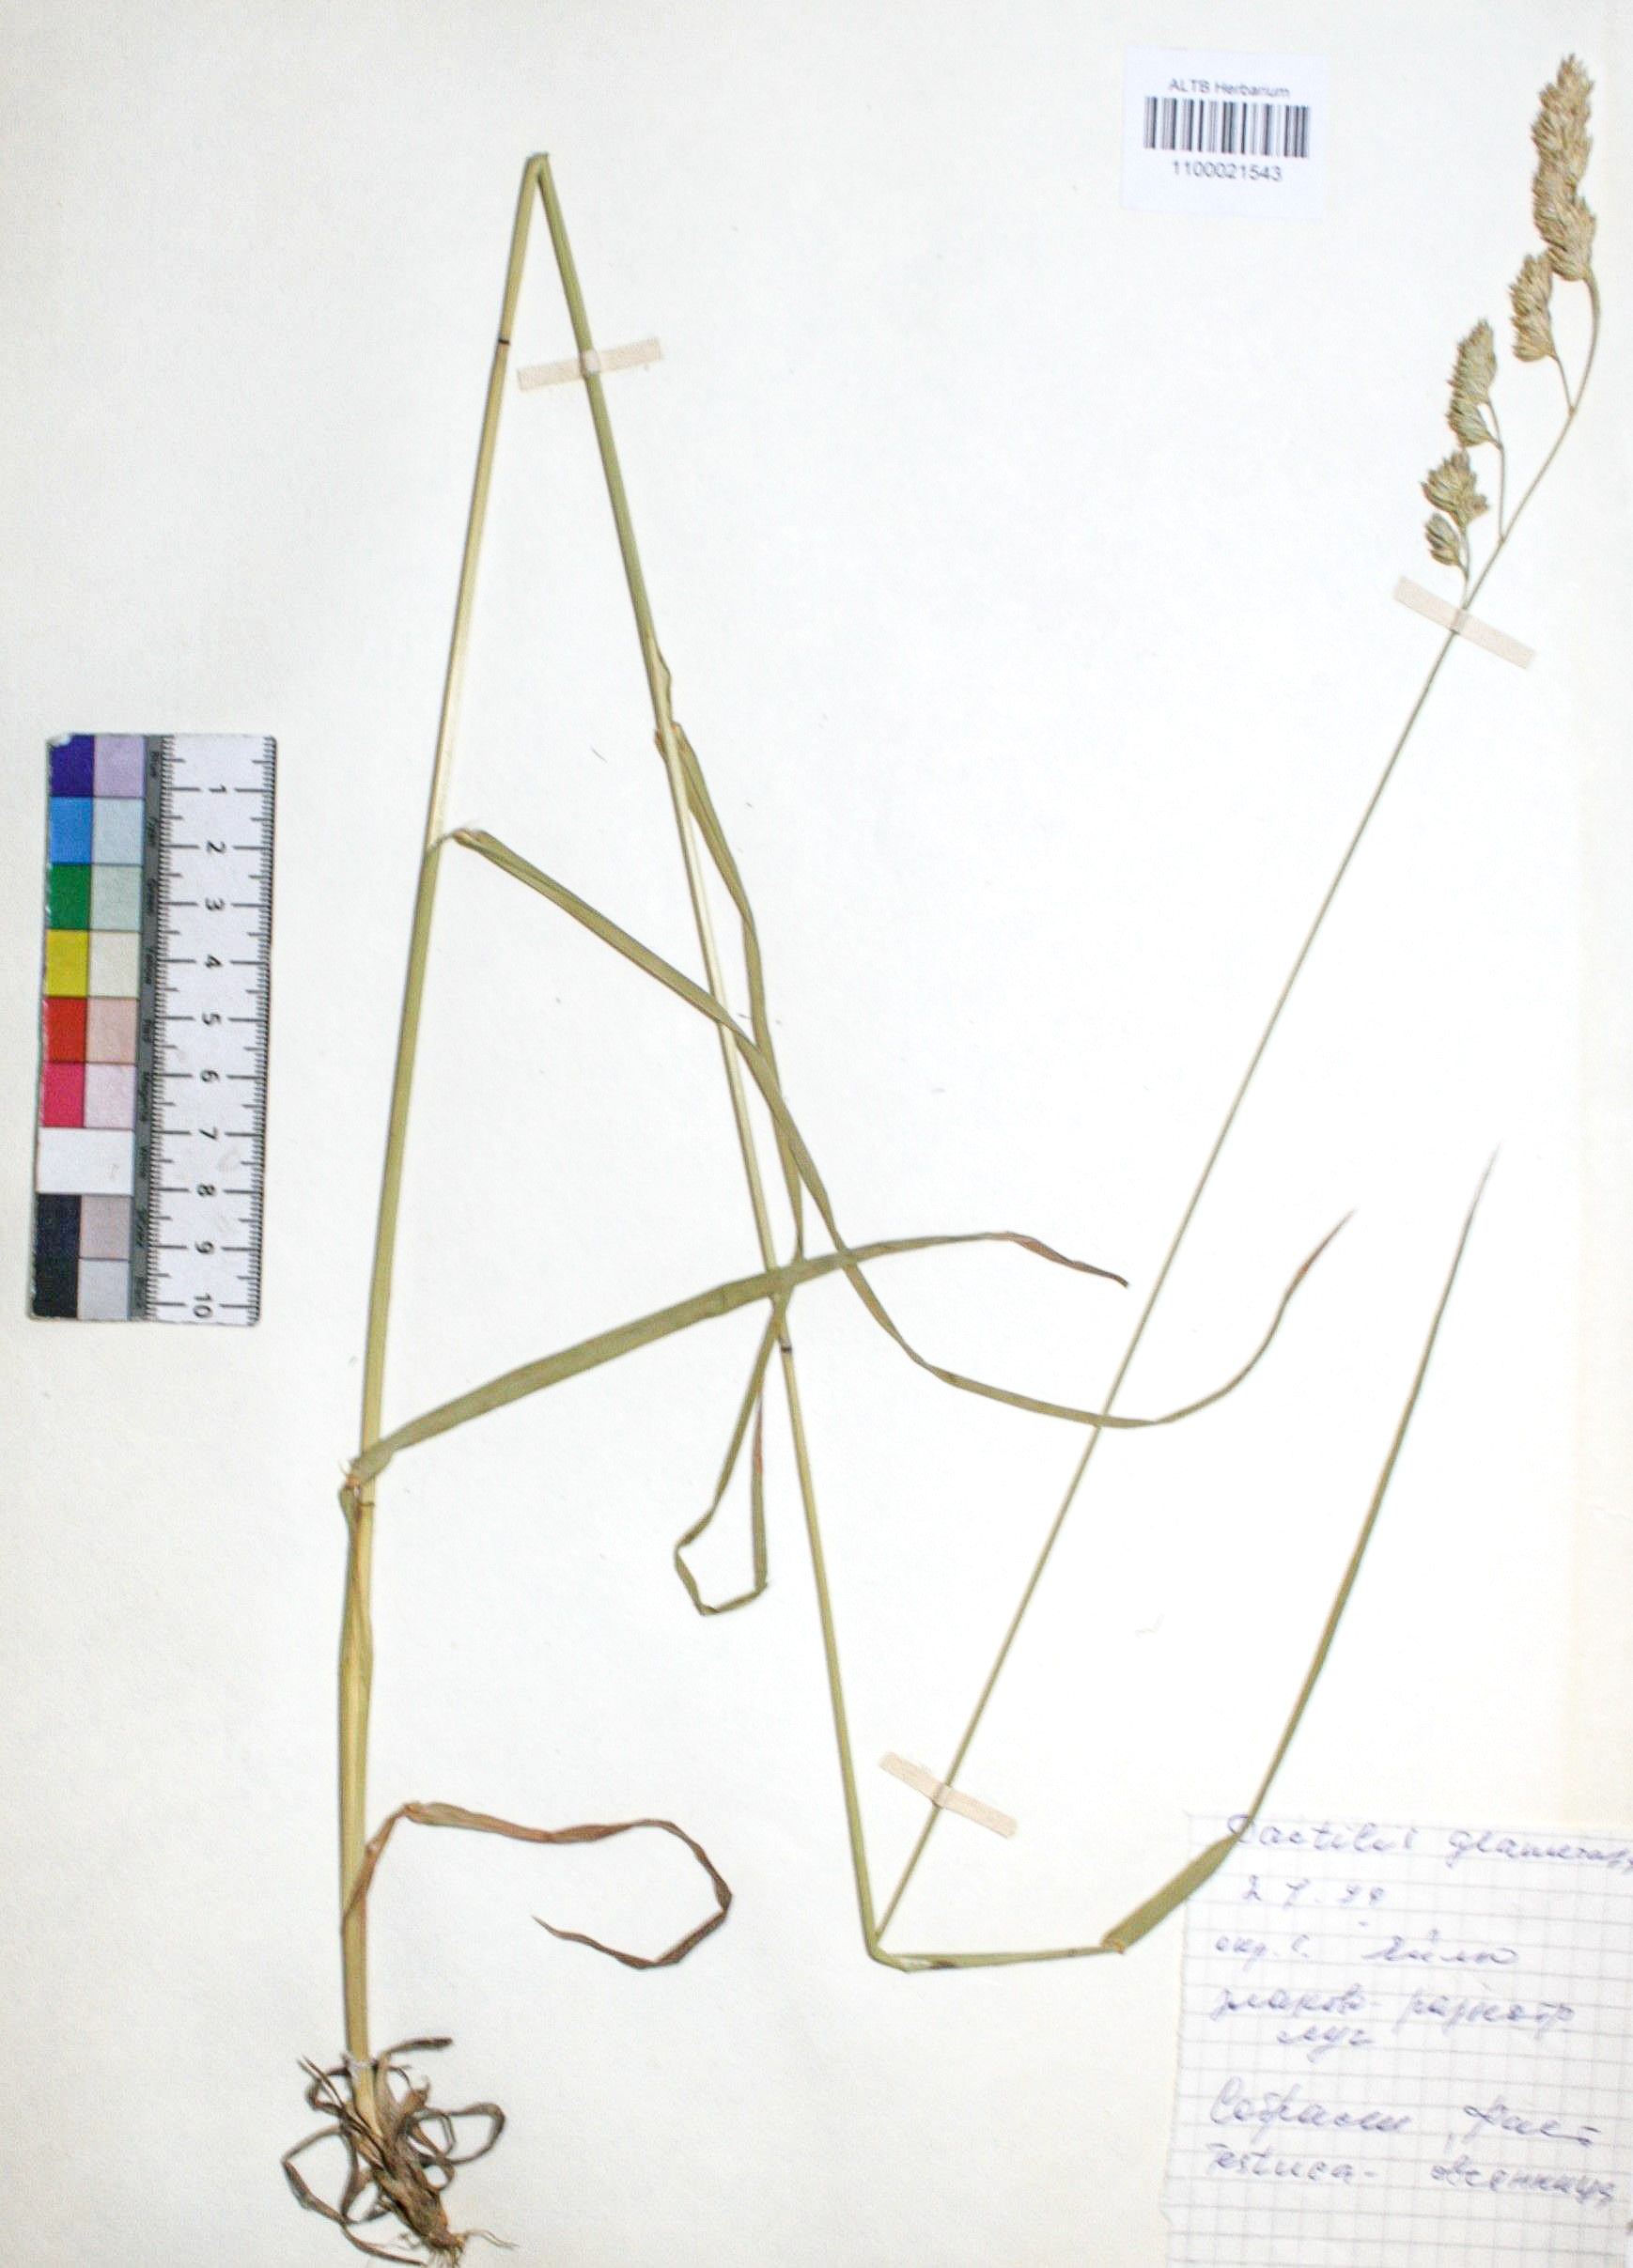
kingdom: Plantae
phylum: Tracheophyta
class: Liliopsida
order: Poales
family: Poaceae
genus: Dactylis
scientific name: Dactylis glomerata
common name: Orchardgrass
